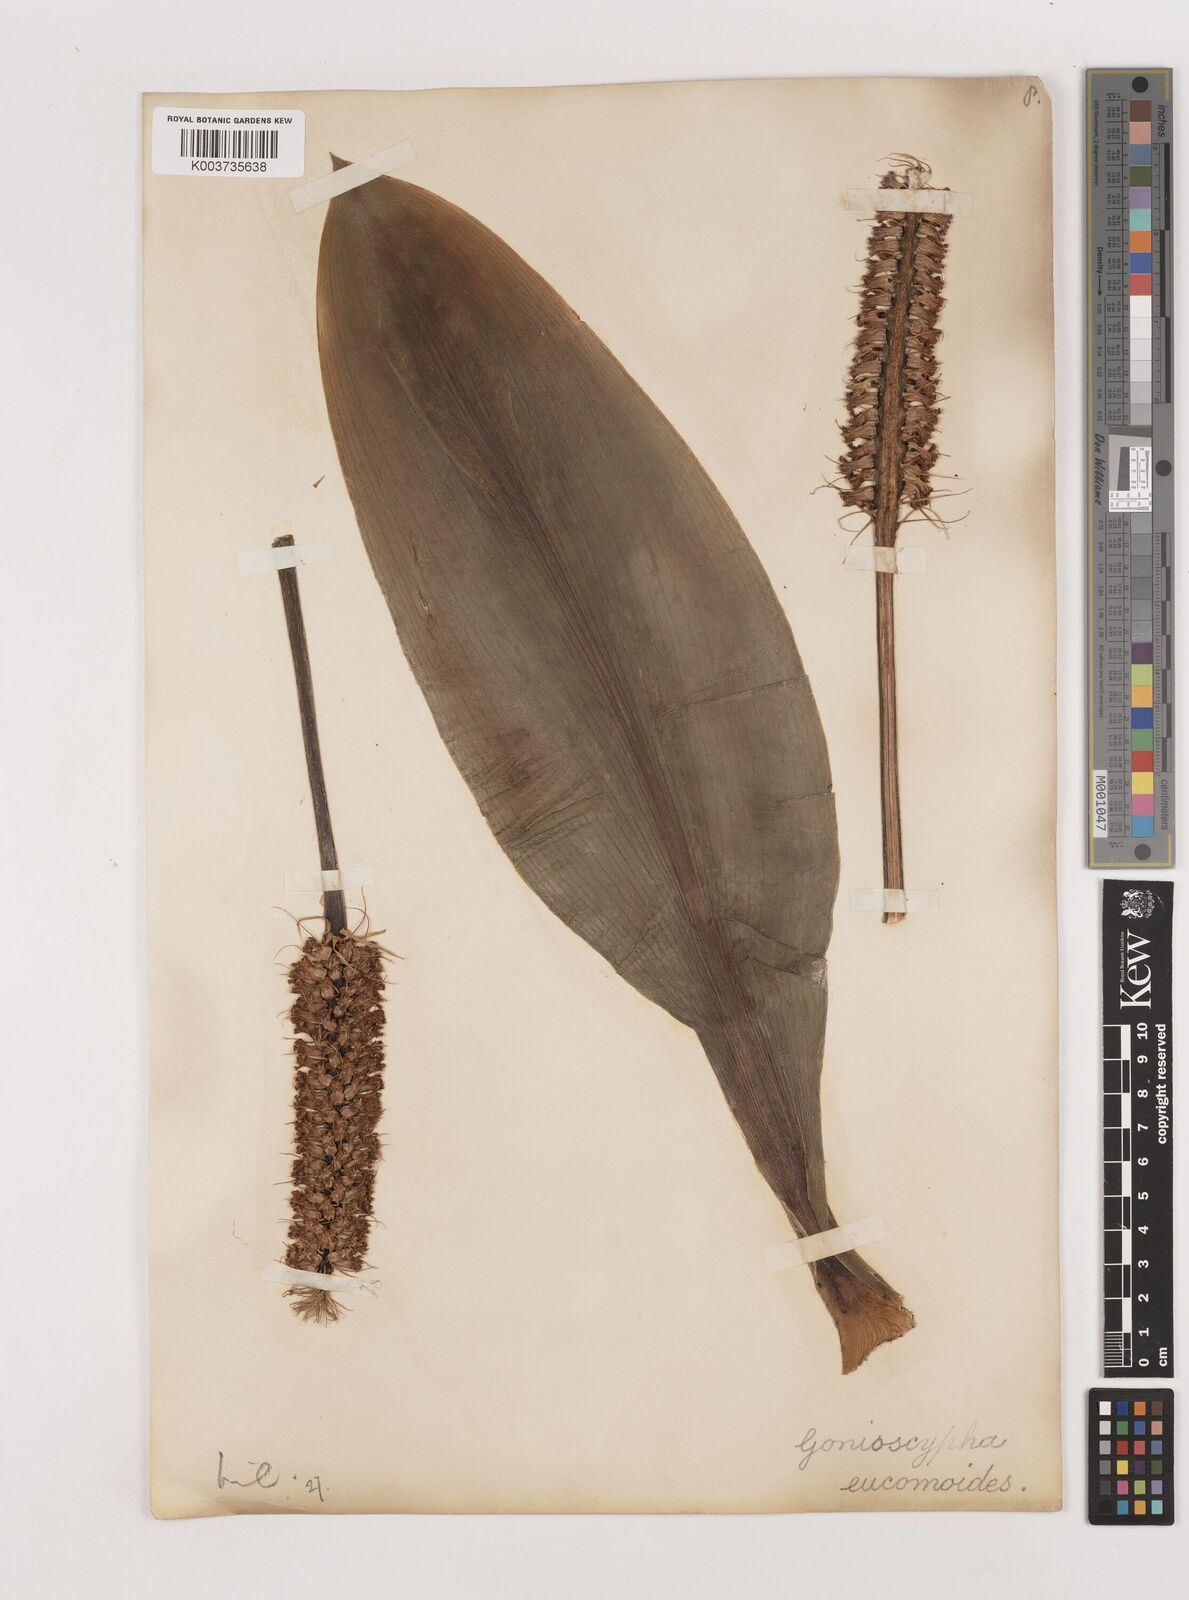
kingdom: Plantae
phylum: Tracheophyta
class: Liliopsida
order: Asparagales
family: Asparagaceae
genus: Rohdea
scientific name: Rohdea eucomoides
